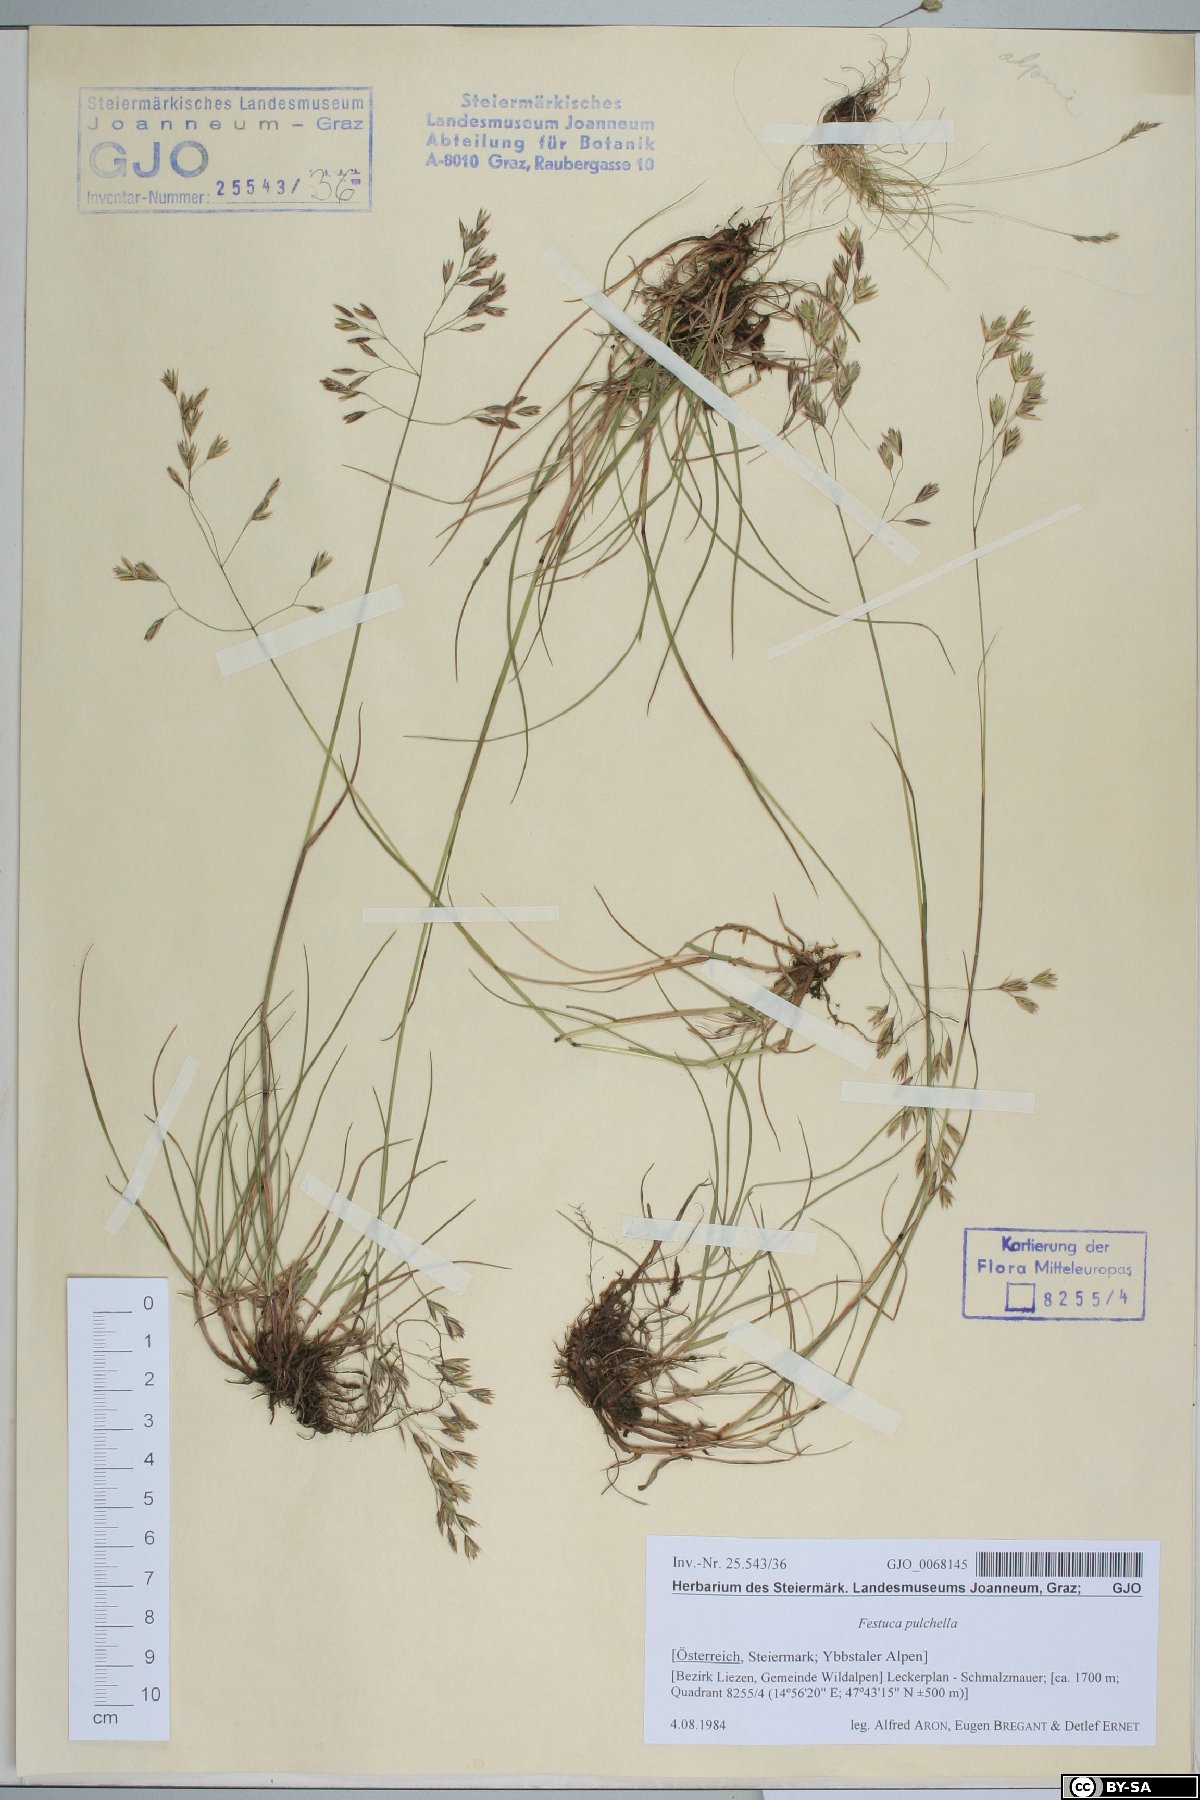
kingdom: Plantae
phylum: Tracheophyta
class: Liliopsida
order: Poales
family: Poaceae
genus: Festuca
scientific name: Festuca pulchella
